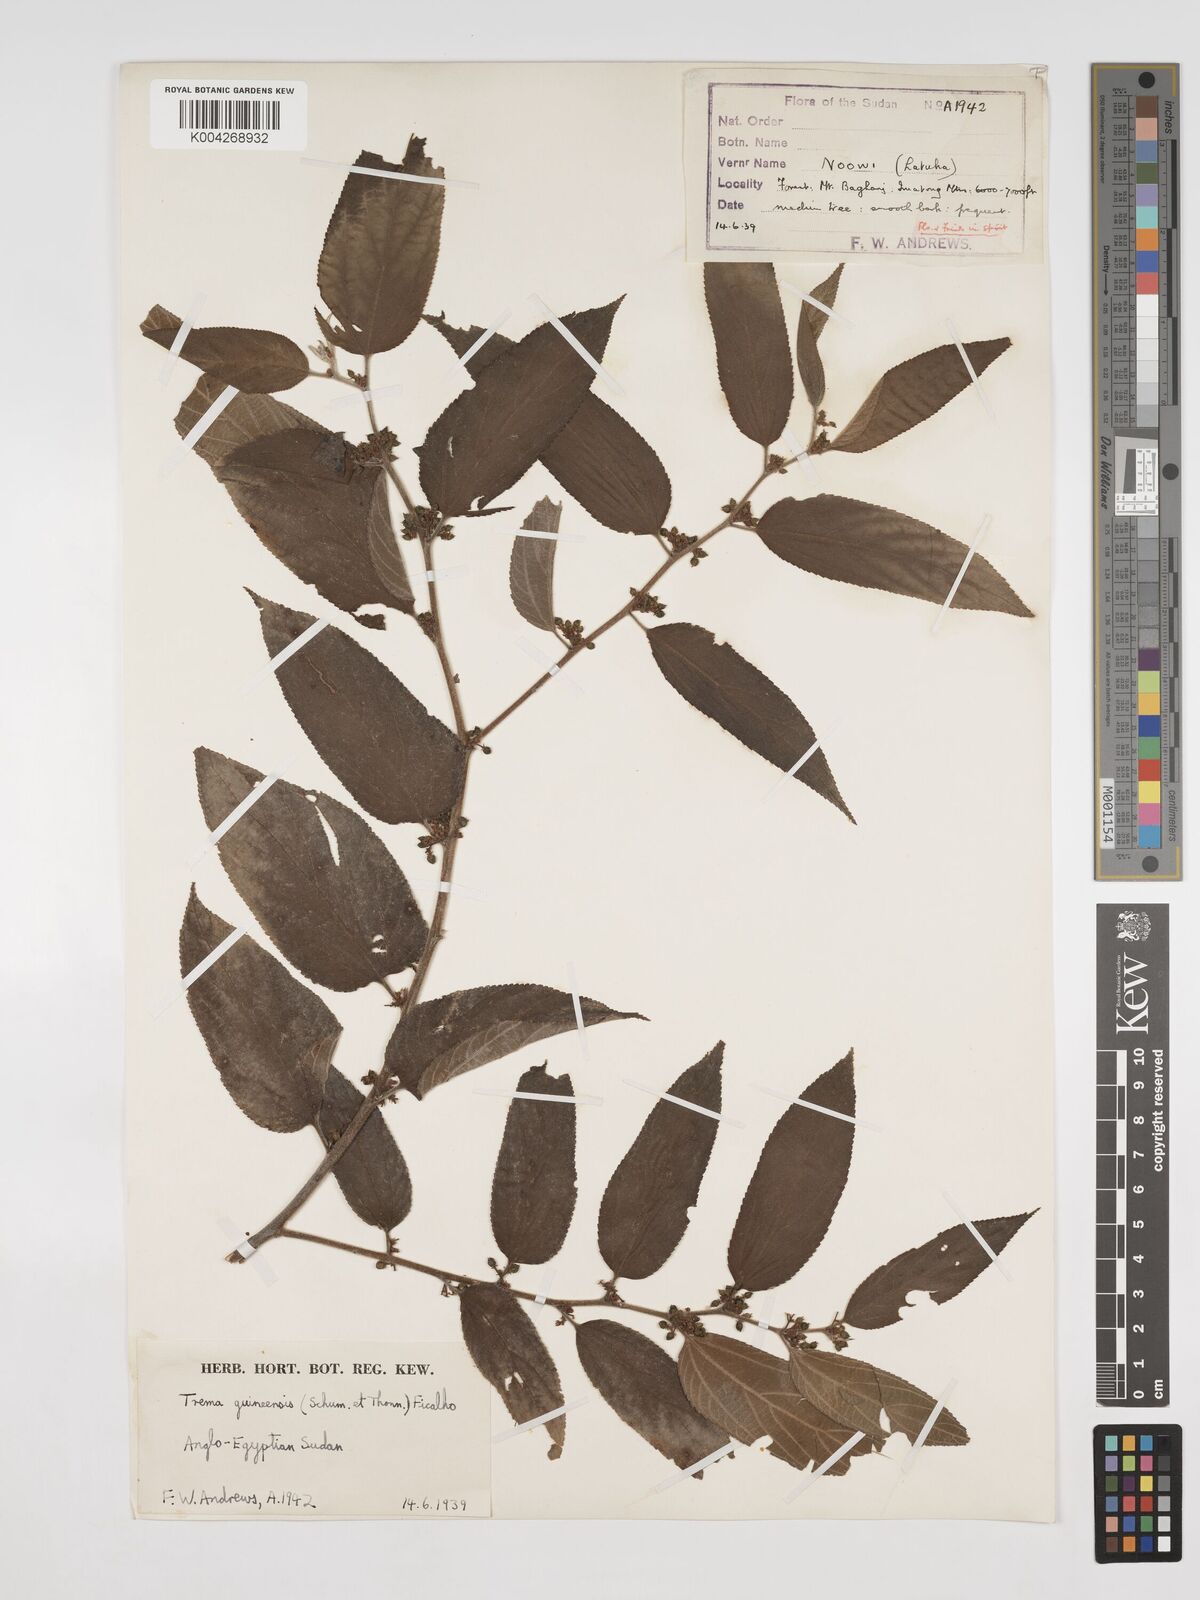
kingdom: Plantae
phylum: Tracheophyta
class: Magnoliopsida
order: Rosales
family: Cannabaceae
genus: Trema
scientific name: Trema orientale
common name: Indian charcoal tree
